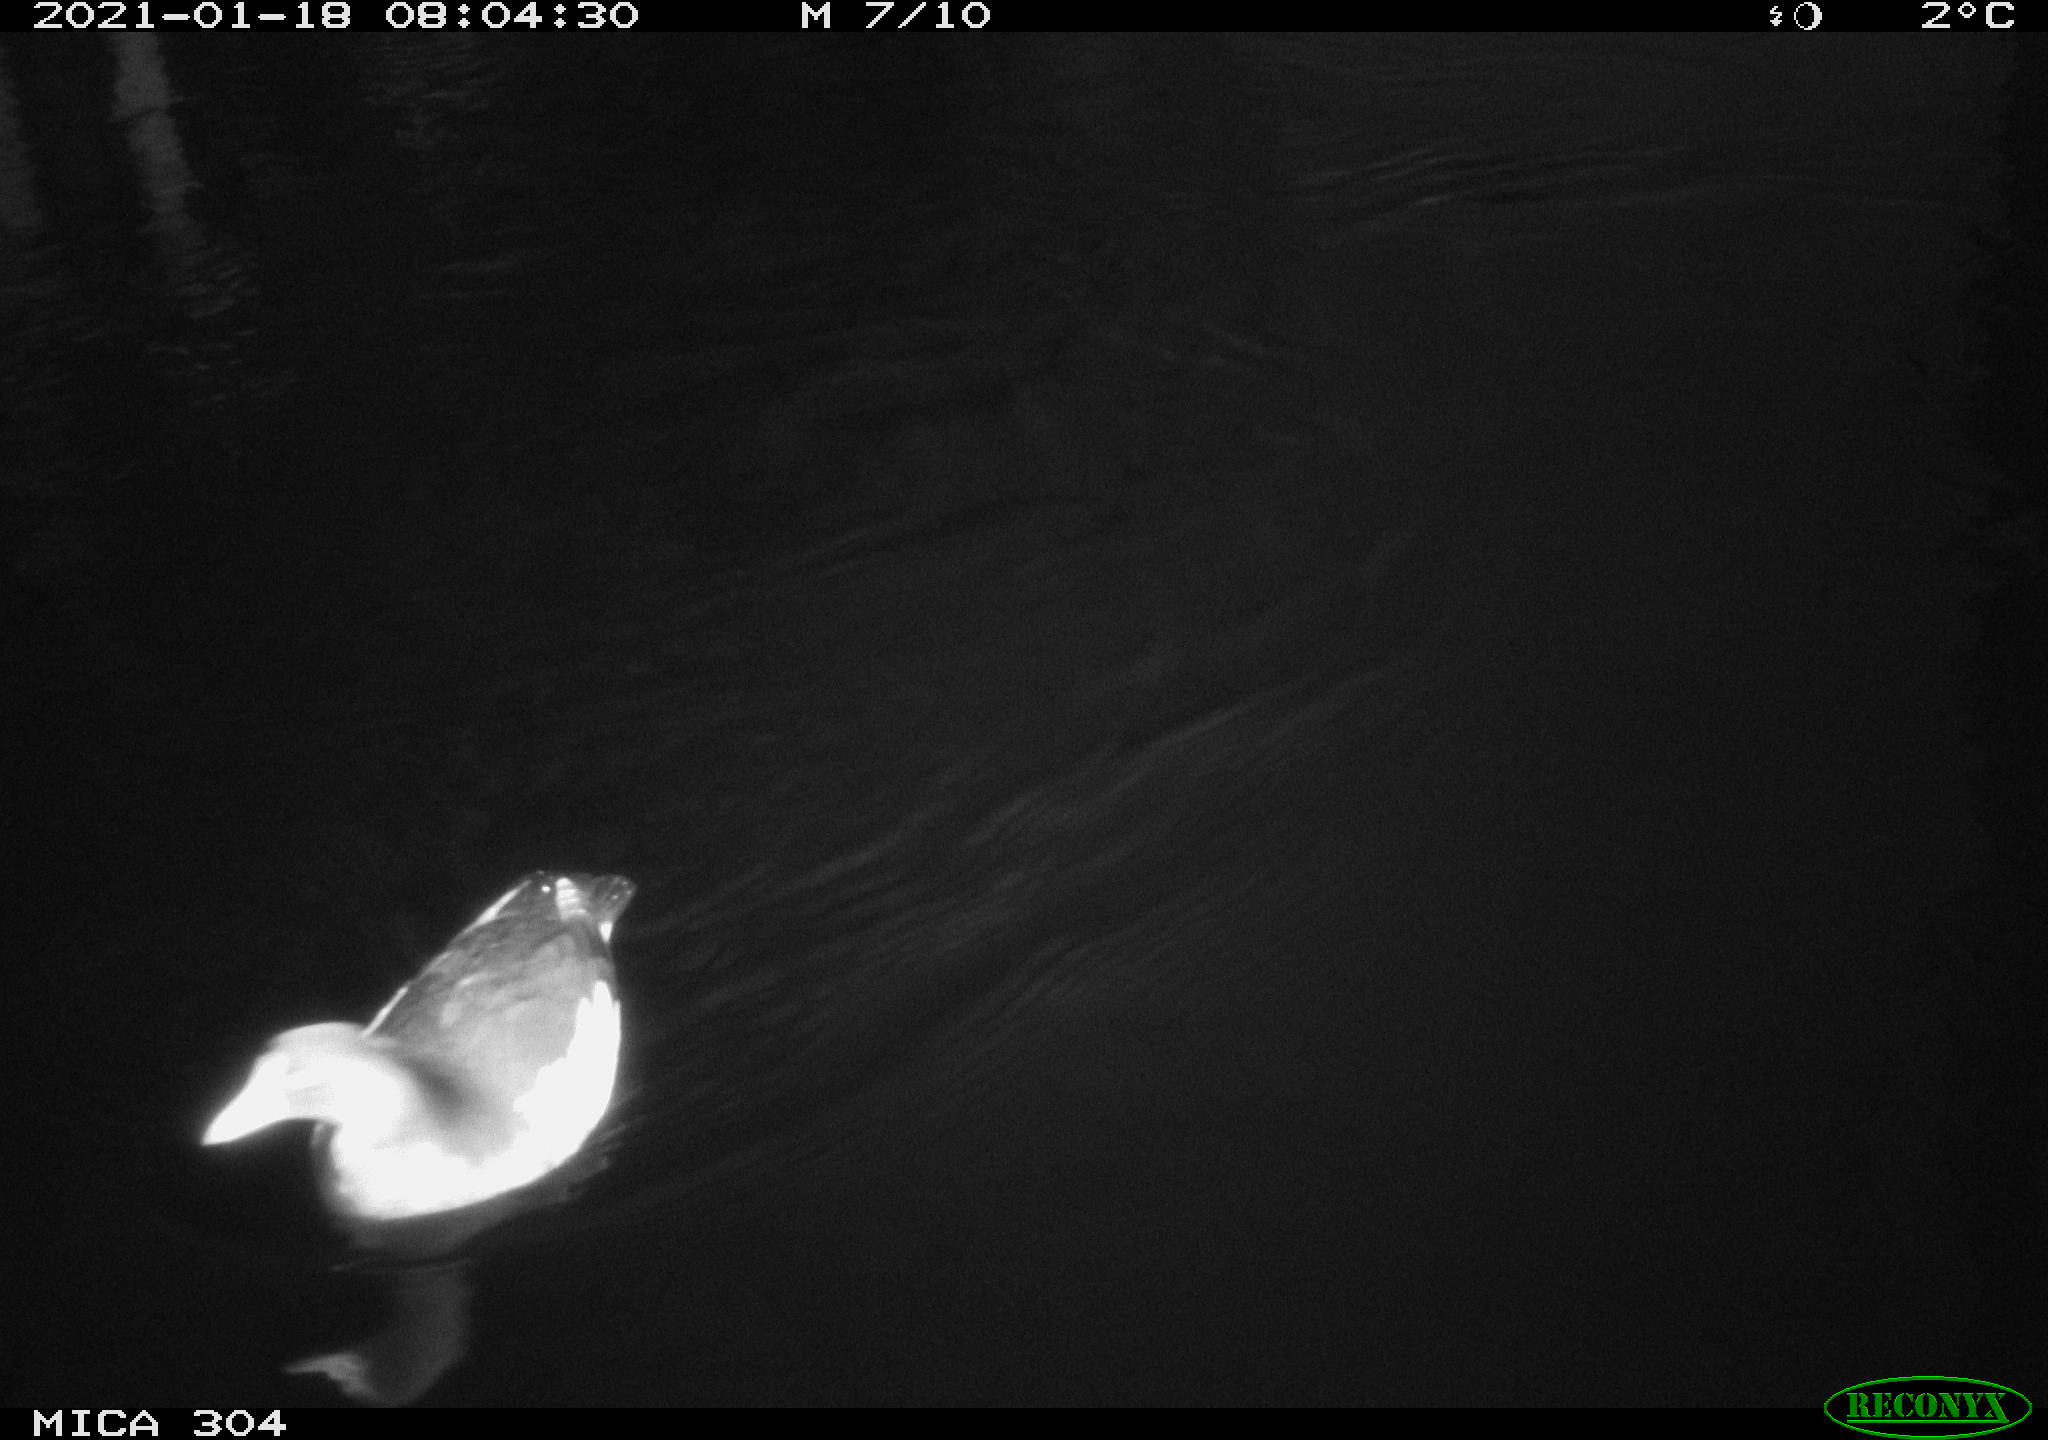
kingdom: Animalia
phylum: Chordata
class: Aves
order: Gruiformes
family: Rallidae
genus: Gallinula
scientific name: Gallinula chloropus
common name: Common moorhen
